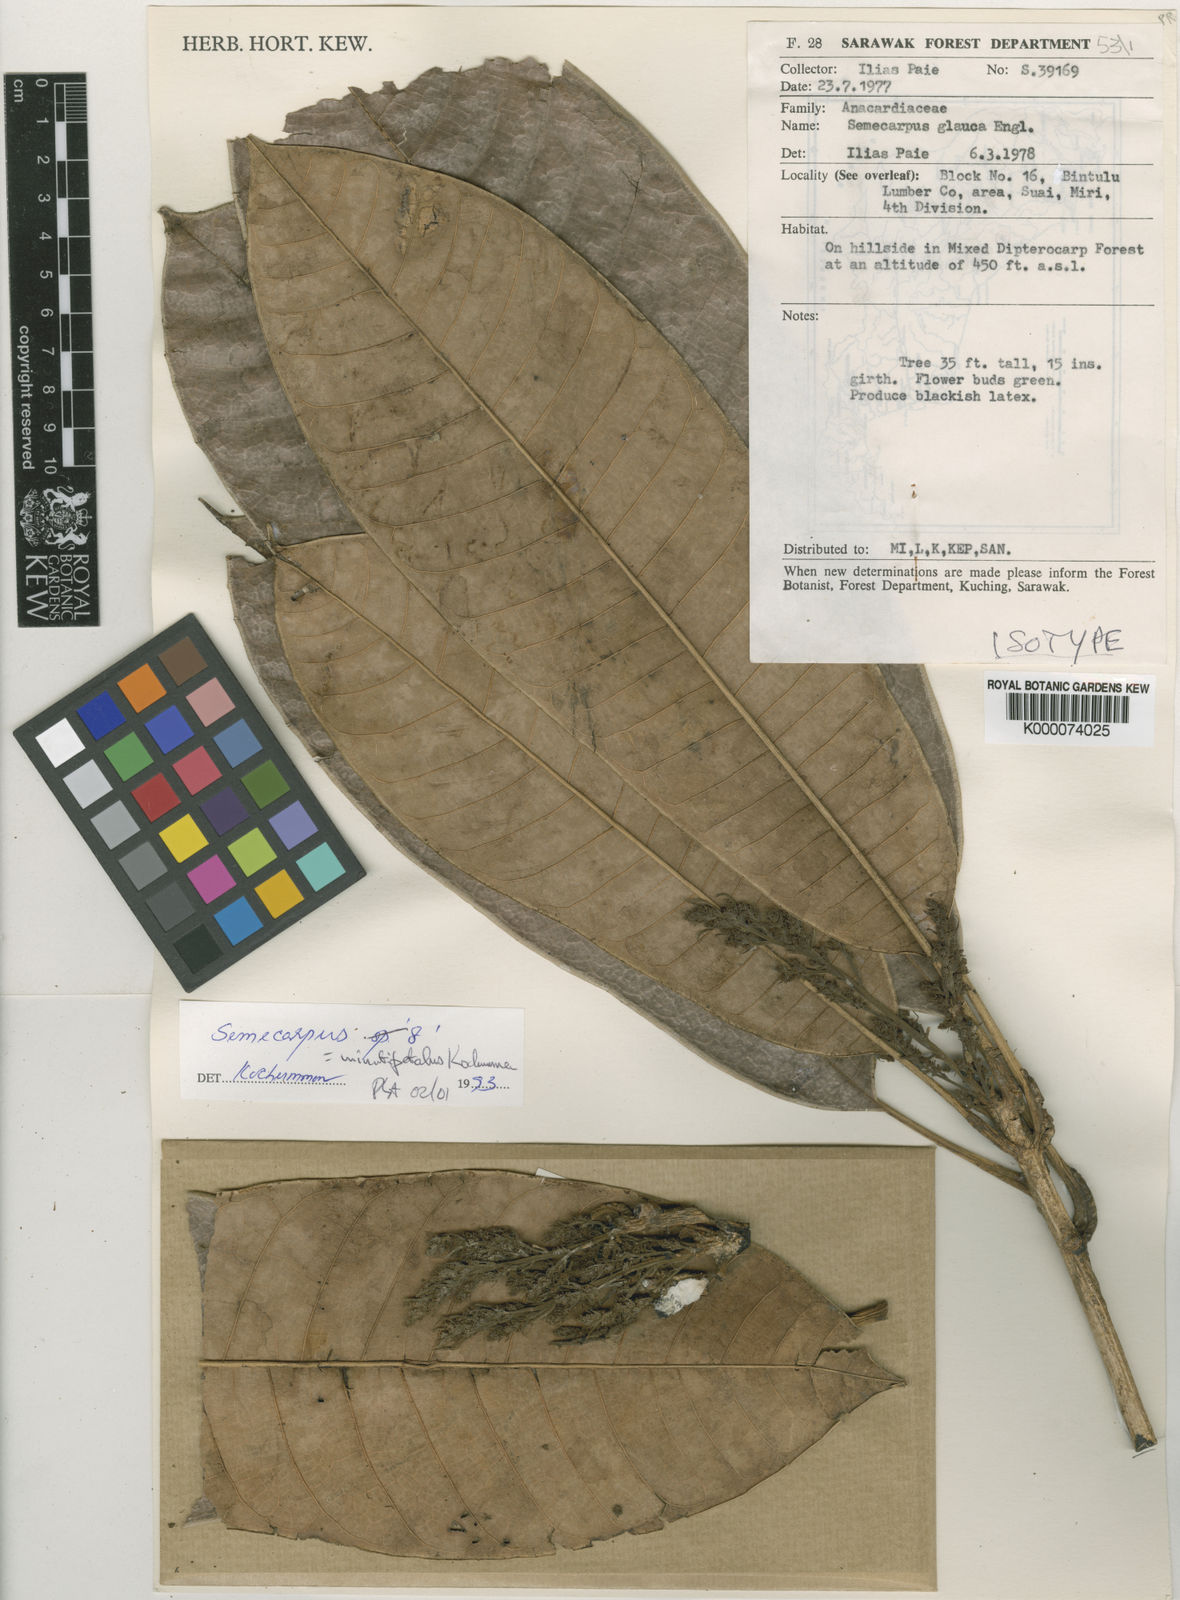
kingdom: Plantae
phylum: Tracheophyta
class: Magnoliopsida
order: Sapindales
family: Anacardiaceae
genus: Semecarpus
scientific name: Semecarpus minutipetalus
